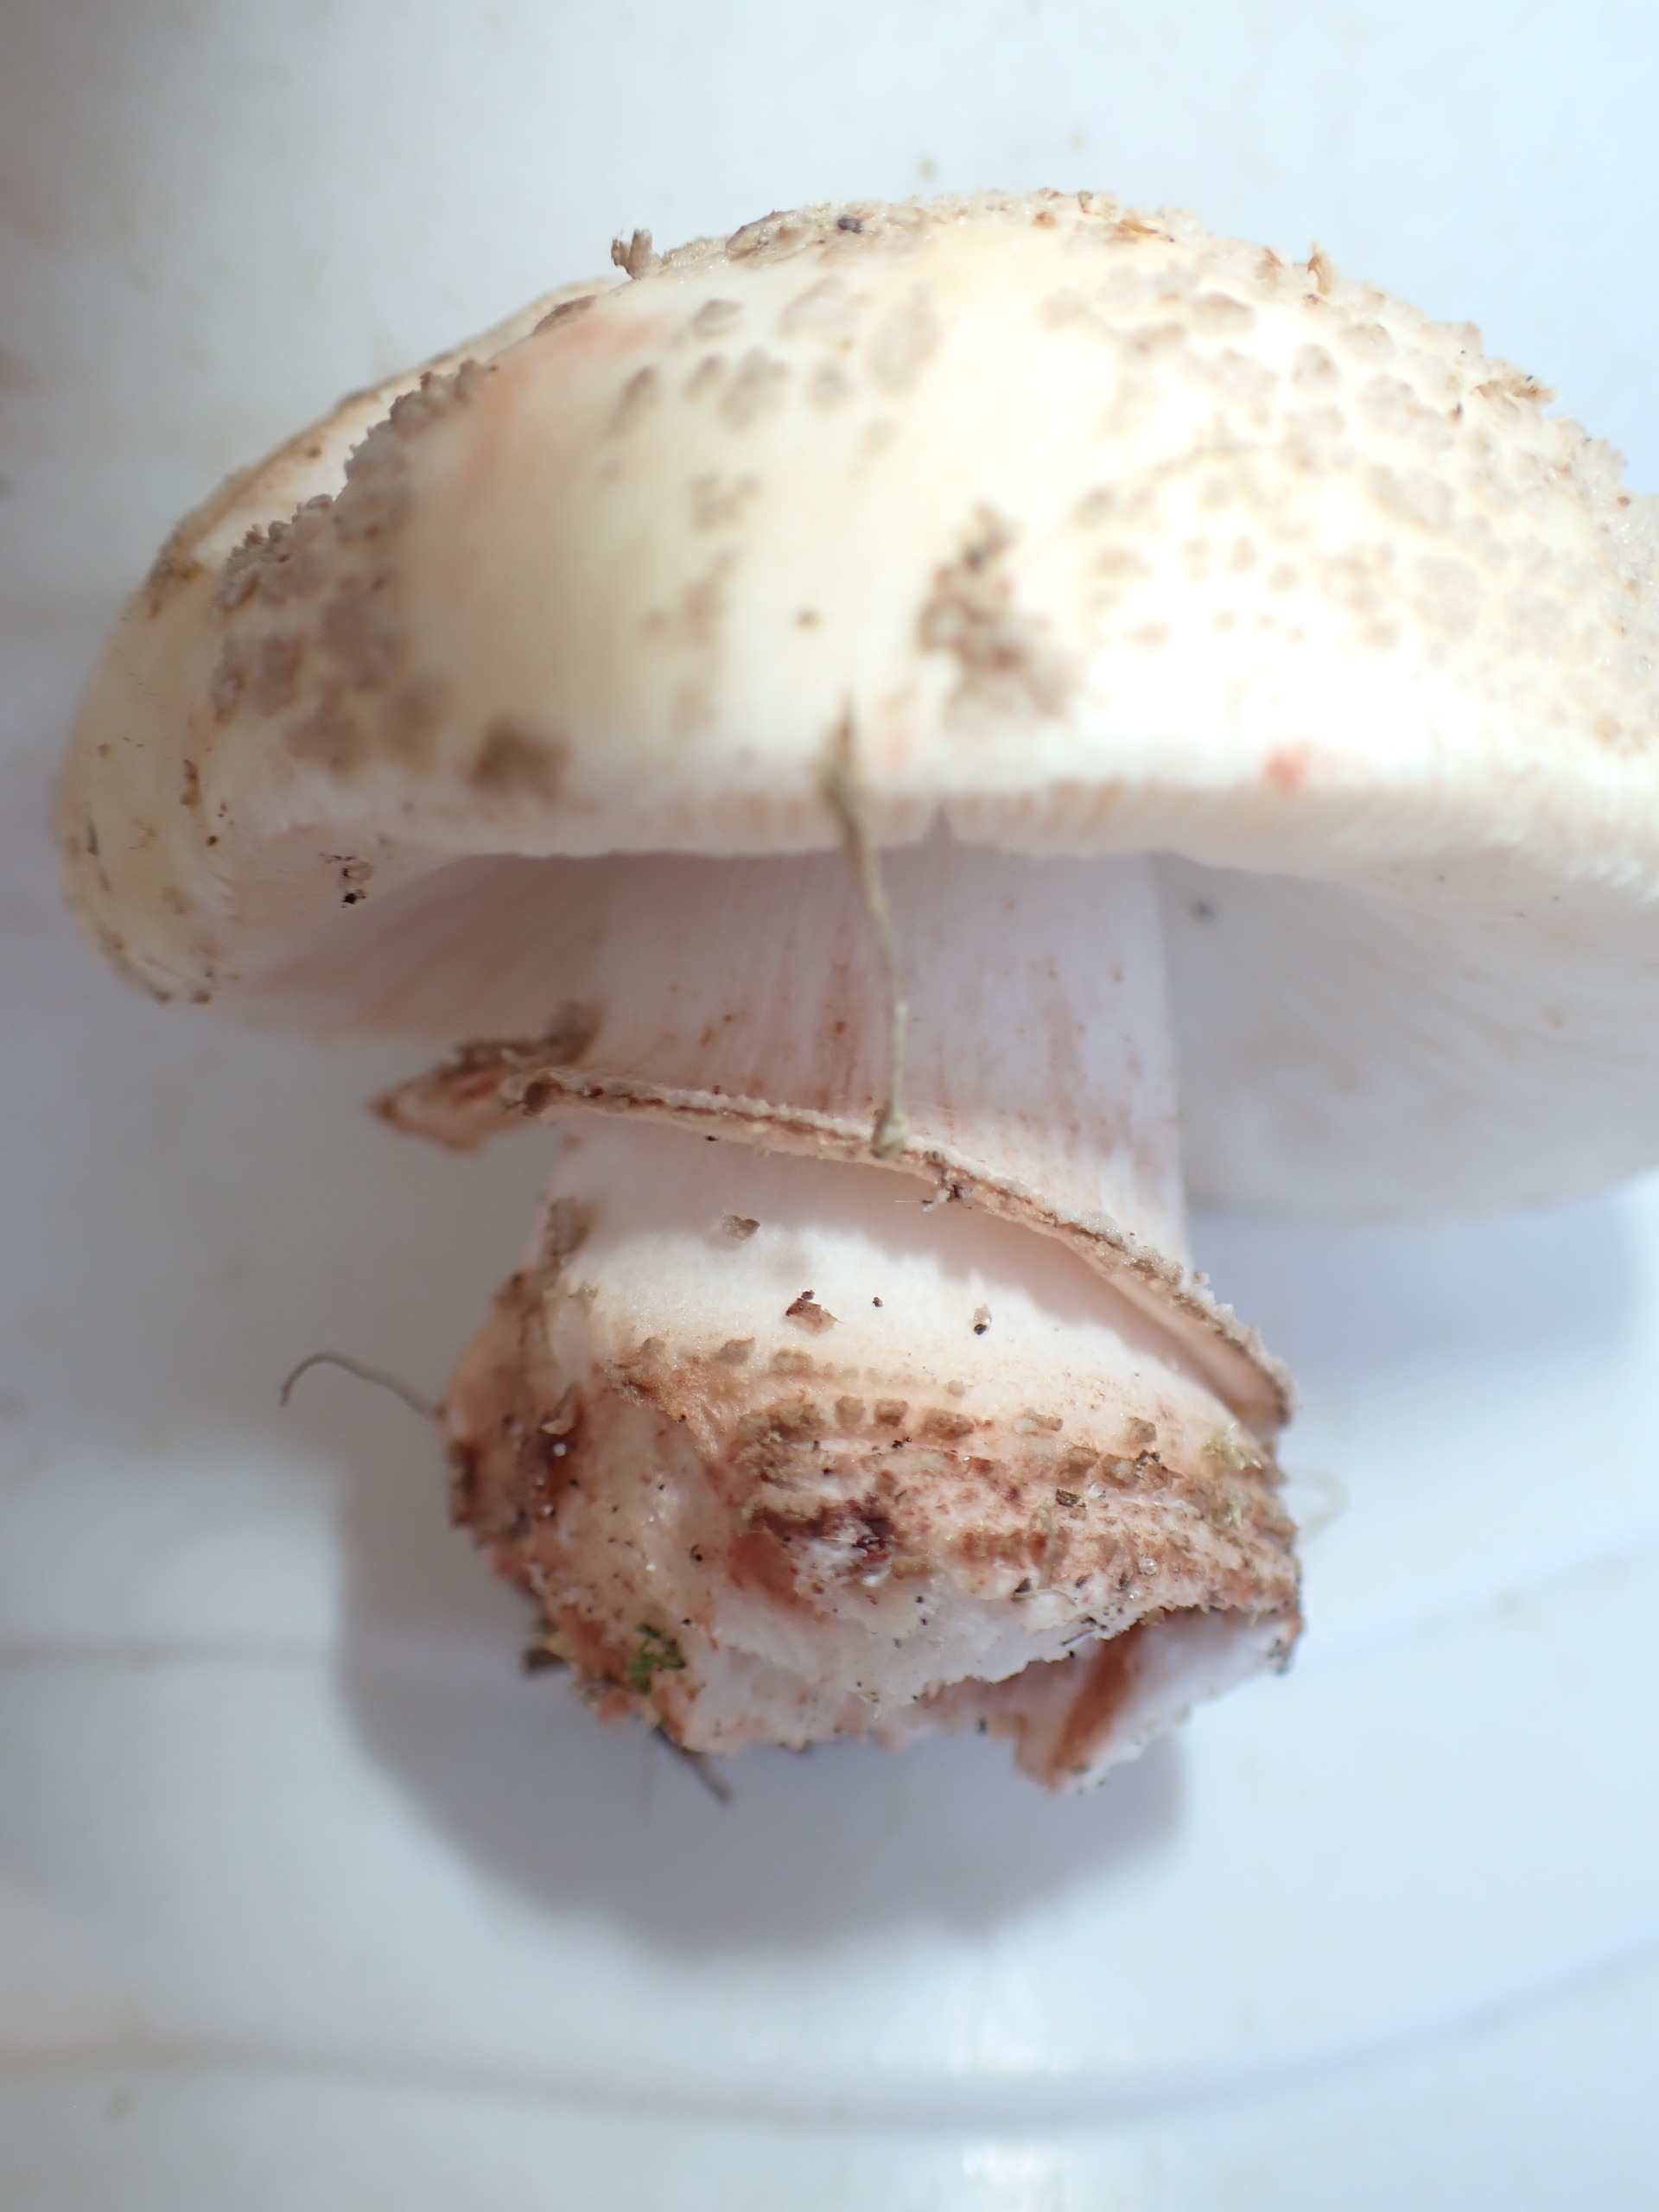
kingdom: Fungi
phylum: Basidiomycota
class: Agaricomycetes
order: Agaricales
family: Amanitaceae
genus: Amanita
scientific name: Amanita rubescens
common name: Rødmende fluesvamp
